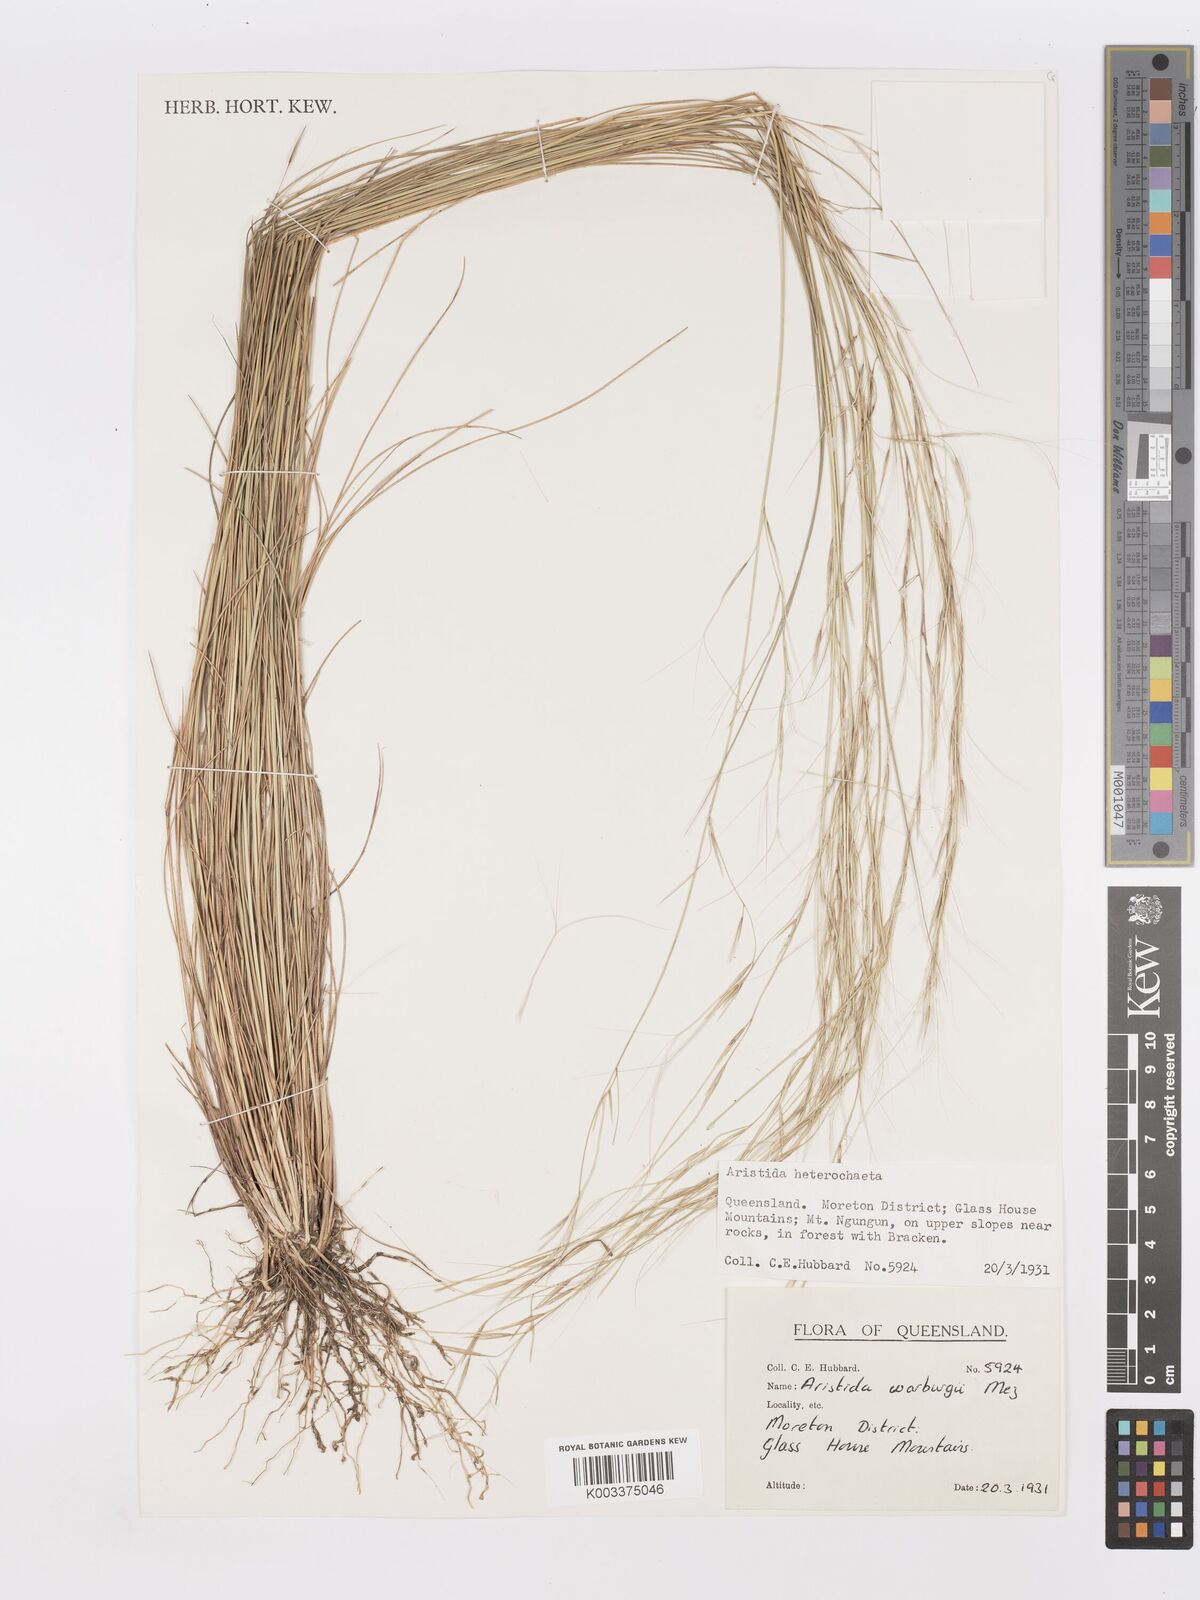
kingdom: Plantae
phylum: Tracheophyta
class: Liliopsida
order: Poales
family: Poaceae
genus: Aristida
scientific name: Aristida warburgii
